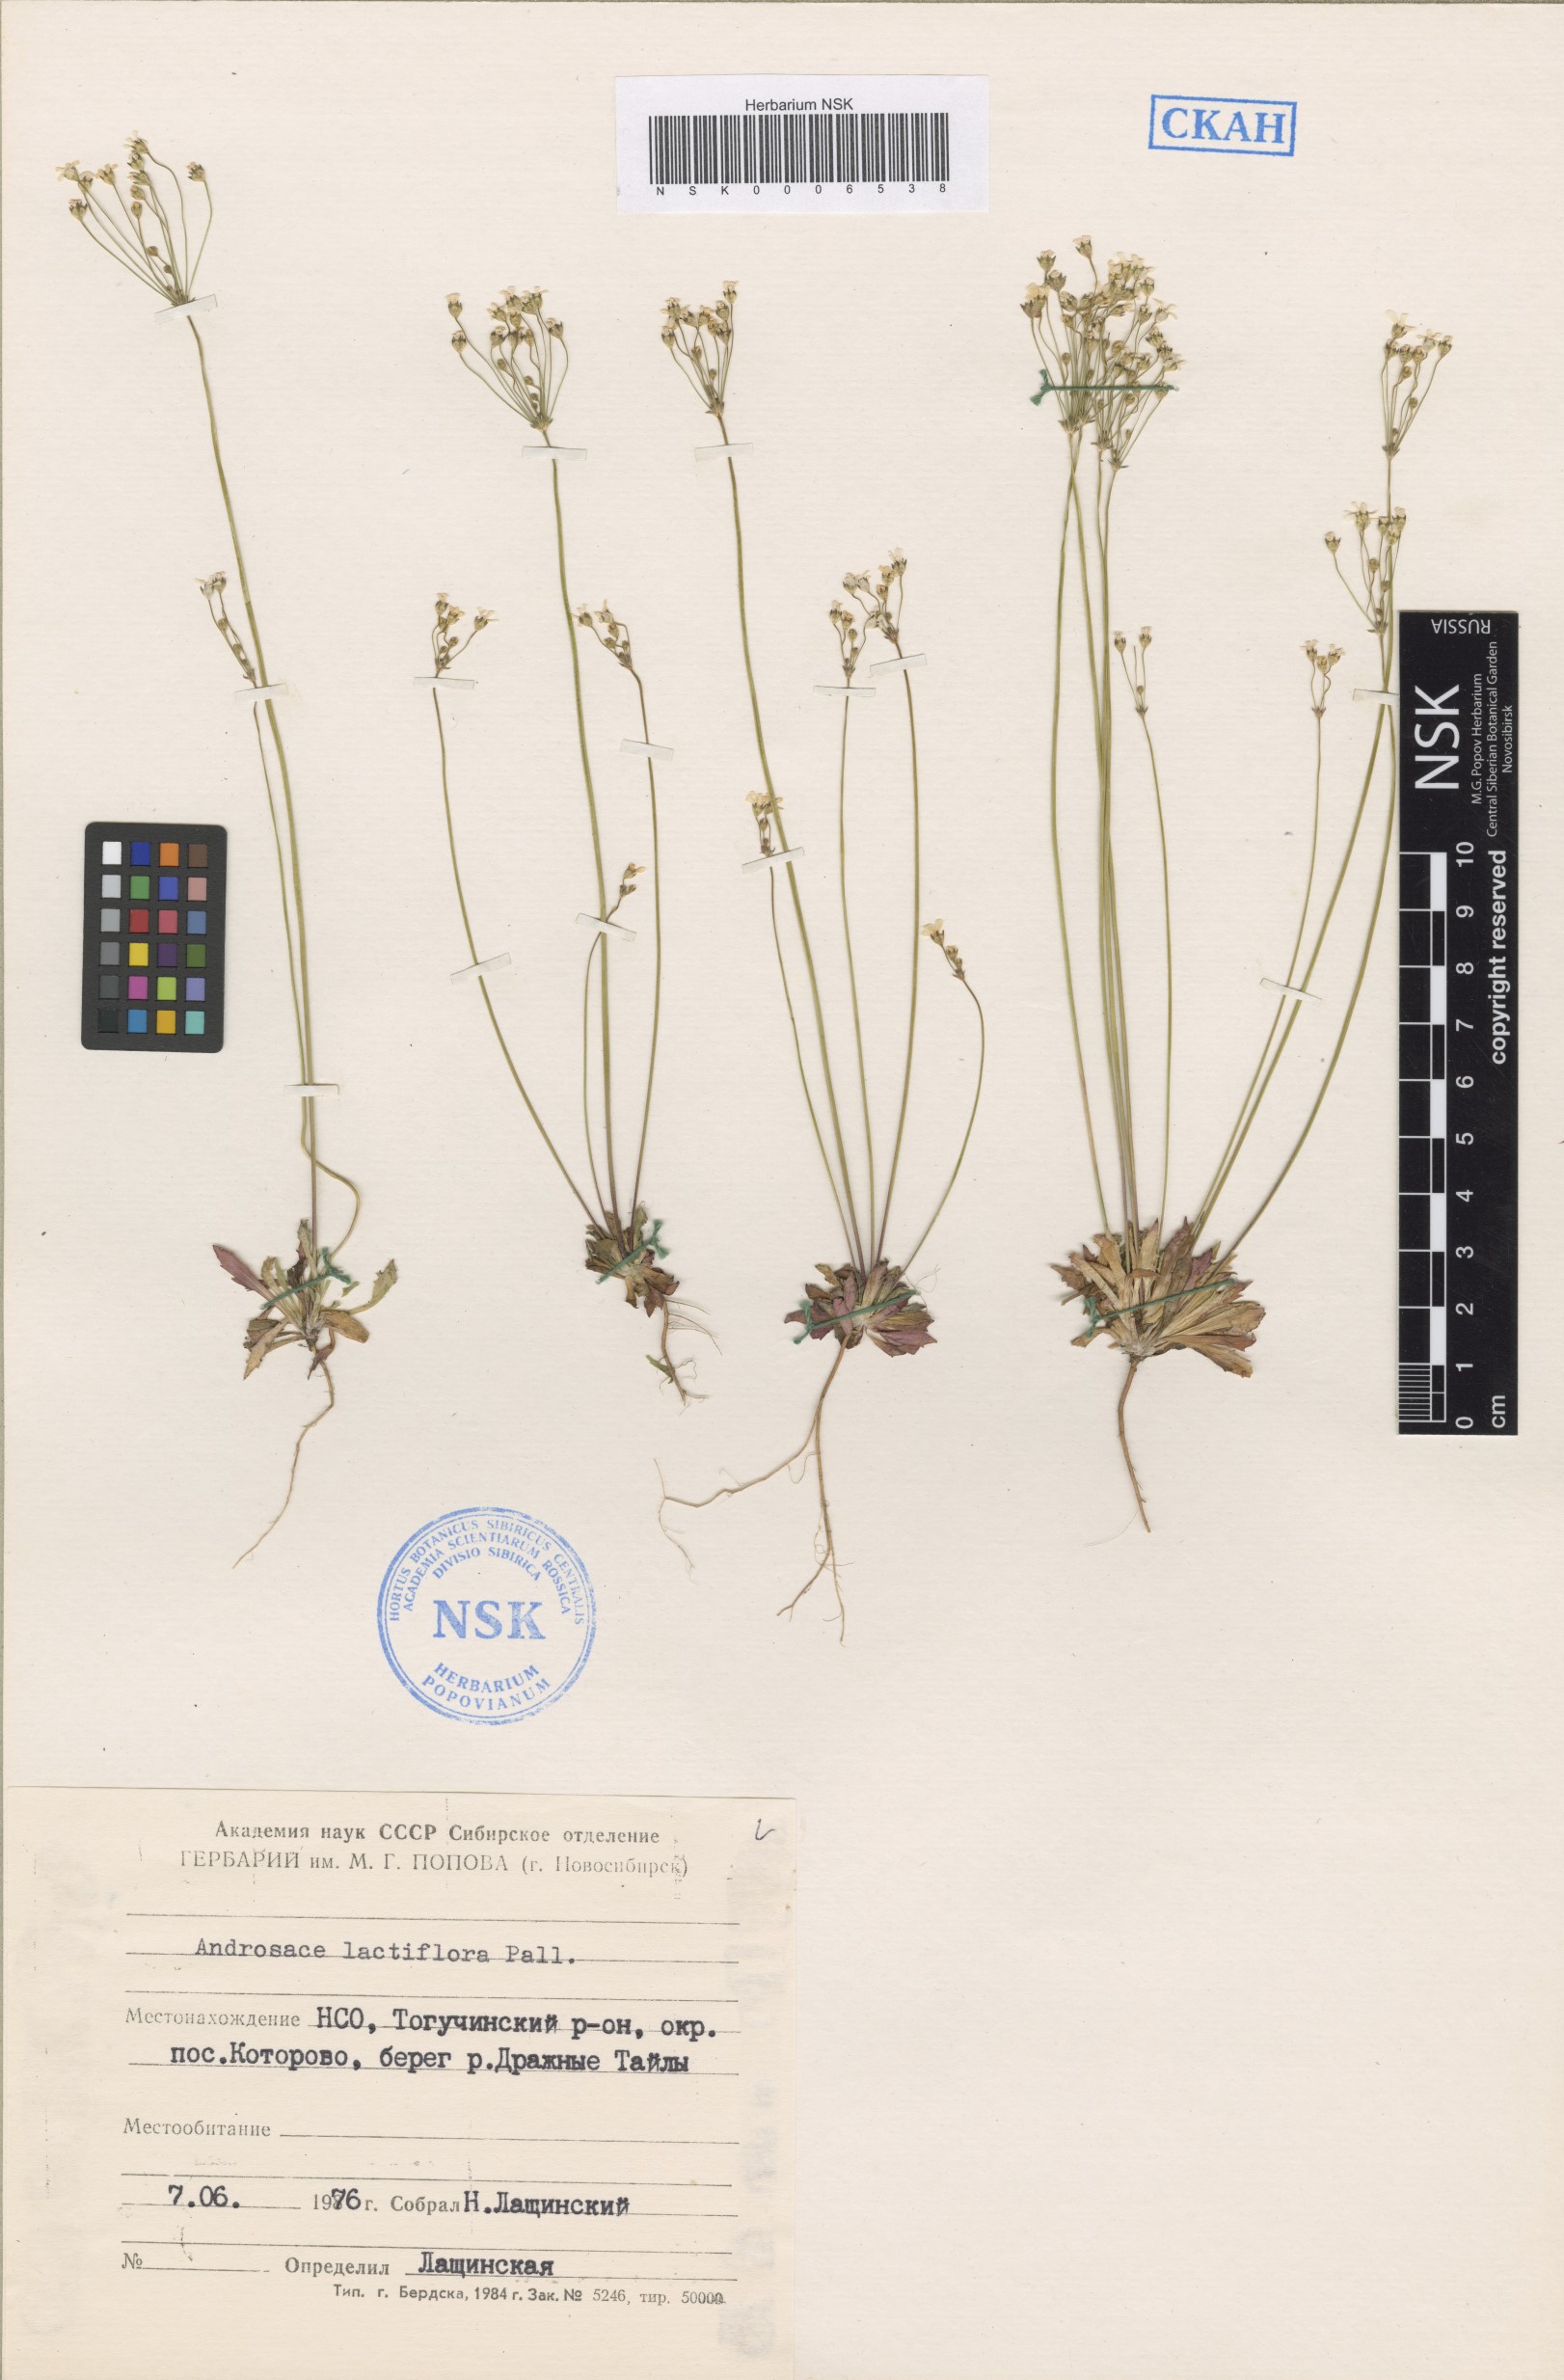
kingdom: Plantae
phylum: Tracheophyta
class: Magnoliopsida
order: Ericales
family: Primulaceae
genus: Androsace
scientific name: Androsace lactiflora
